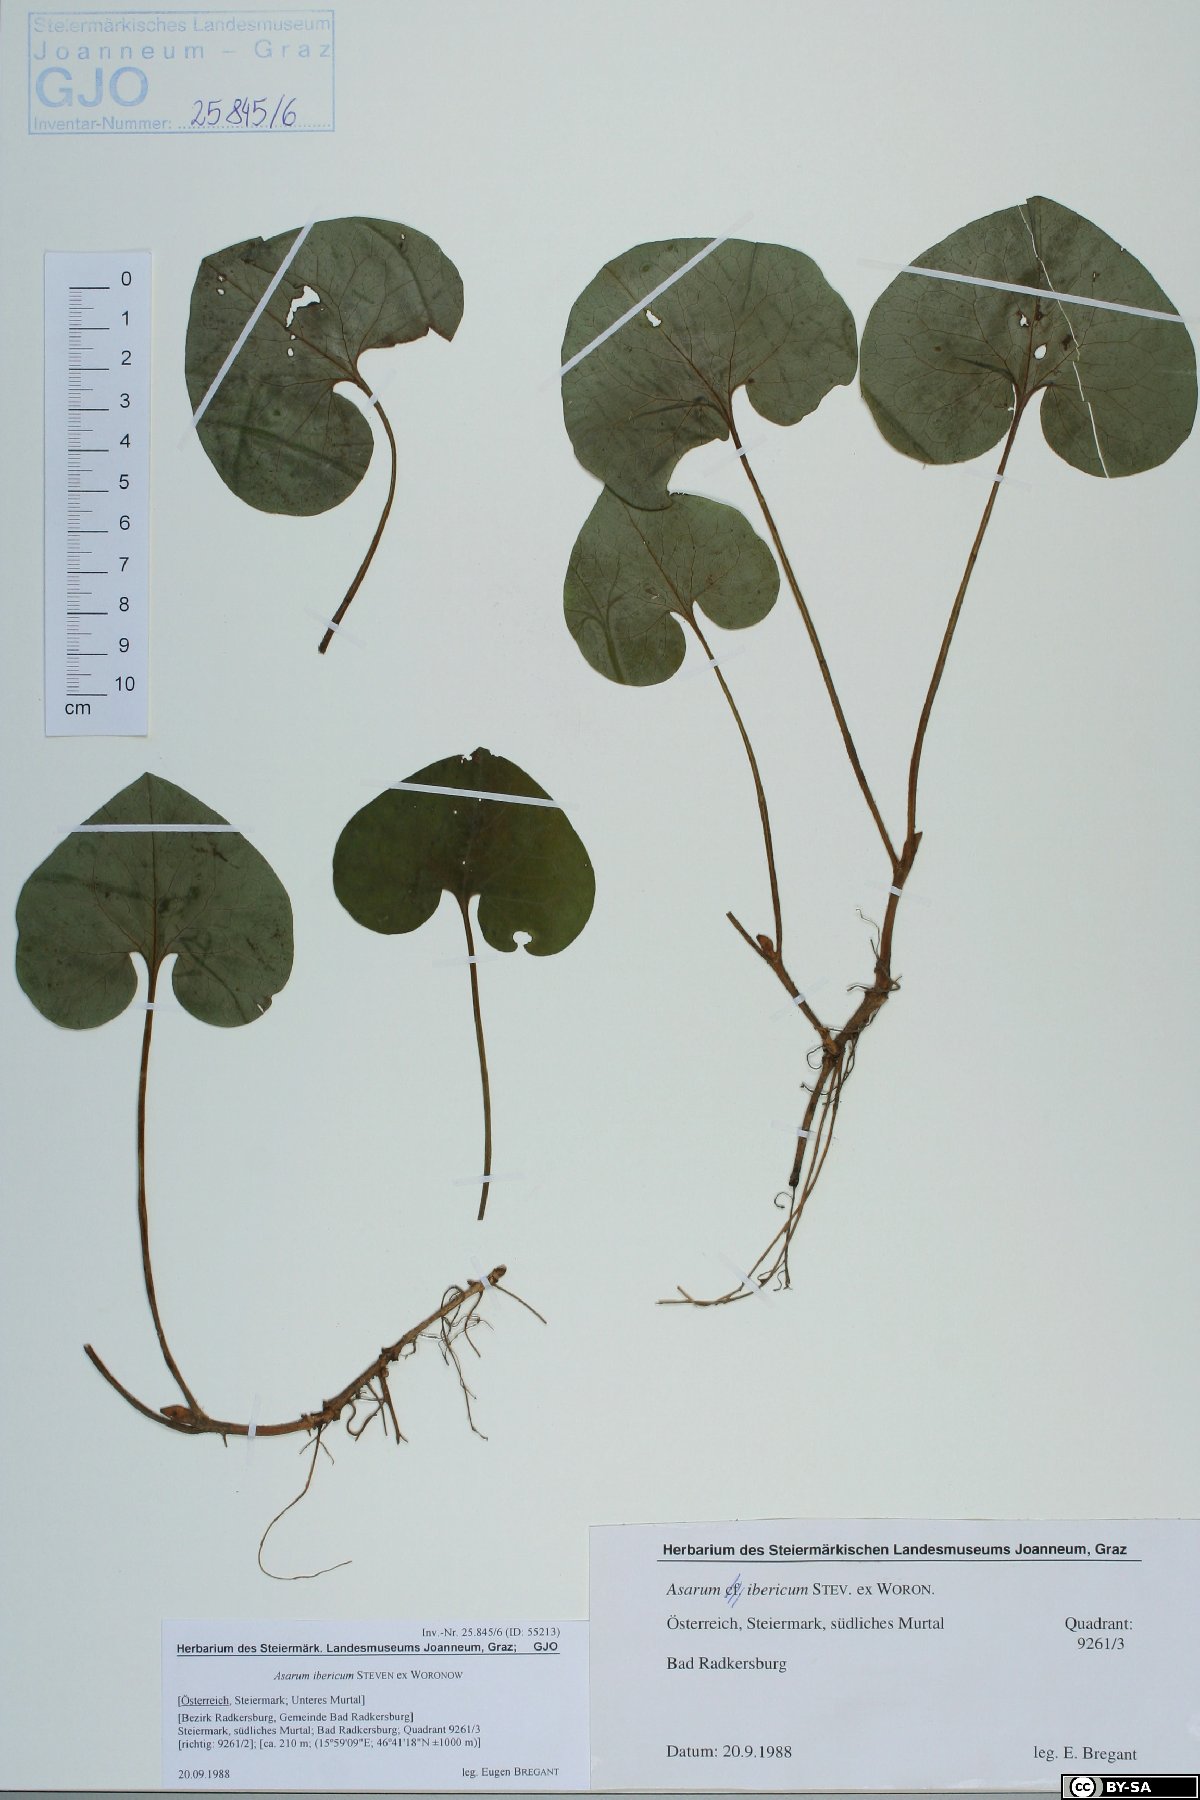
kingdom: Plantae
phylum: Tracheophyta
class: Magnoliopsida
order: Piperales
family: Aristolochiaceae
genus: Asarum
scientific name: Asarum europaeum
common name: Asarabacca
